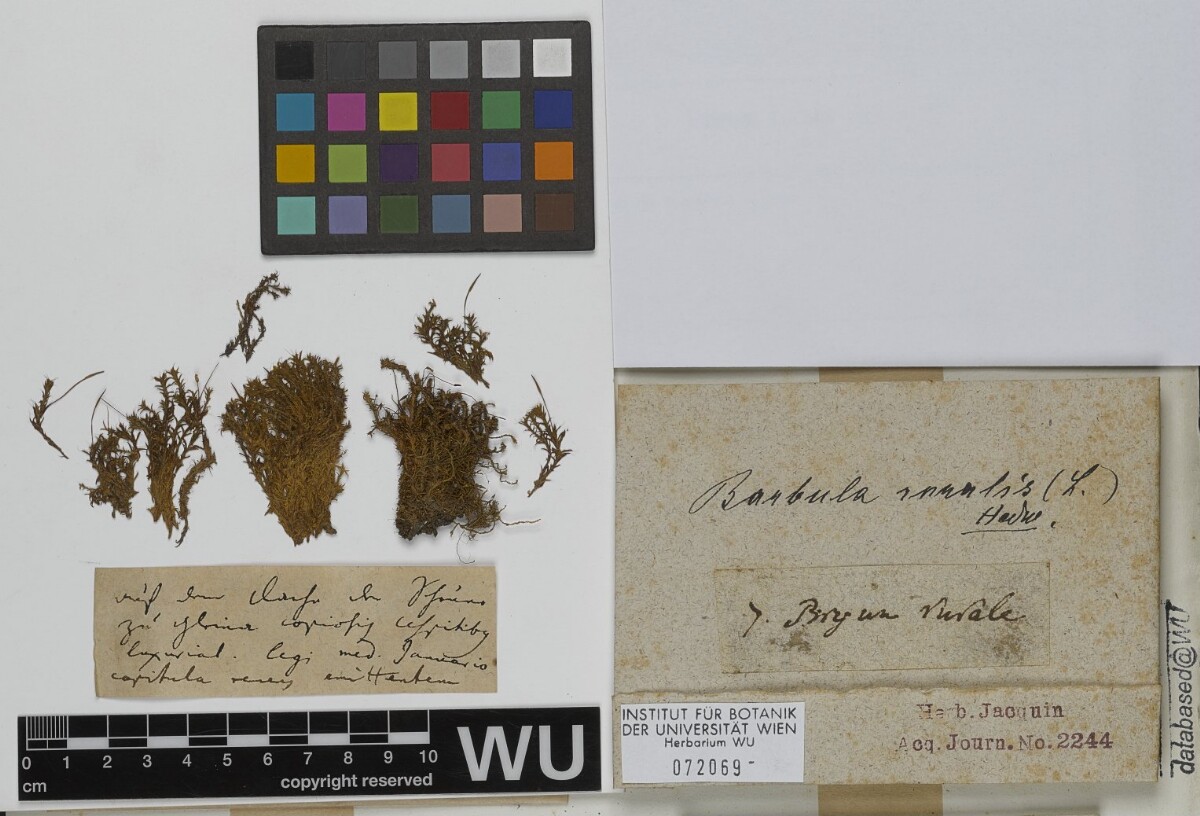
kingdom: Plantae
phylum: Bryophyta
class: Bryopsida
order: Pottiales
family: Pottiaceae
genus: Syntrichia
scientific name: Syntrichia ruralis
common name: Sidewalk screw moss
